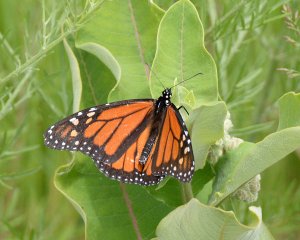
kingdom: Animalia
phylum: Arthropoda
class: Insecta
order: Lepidoptera
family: Nymphalidae
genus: Danaus
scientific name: Danaus plexippus
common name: Monarch
